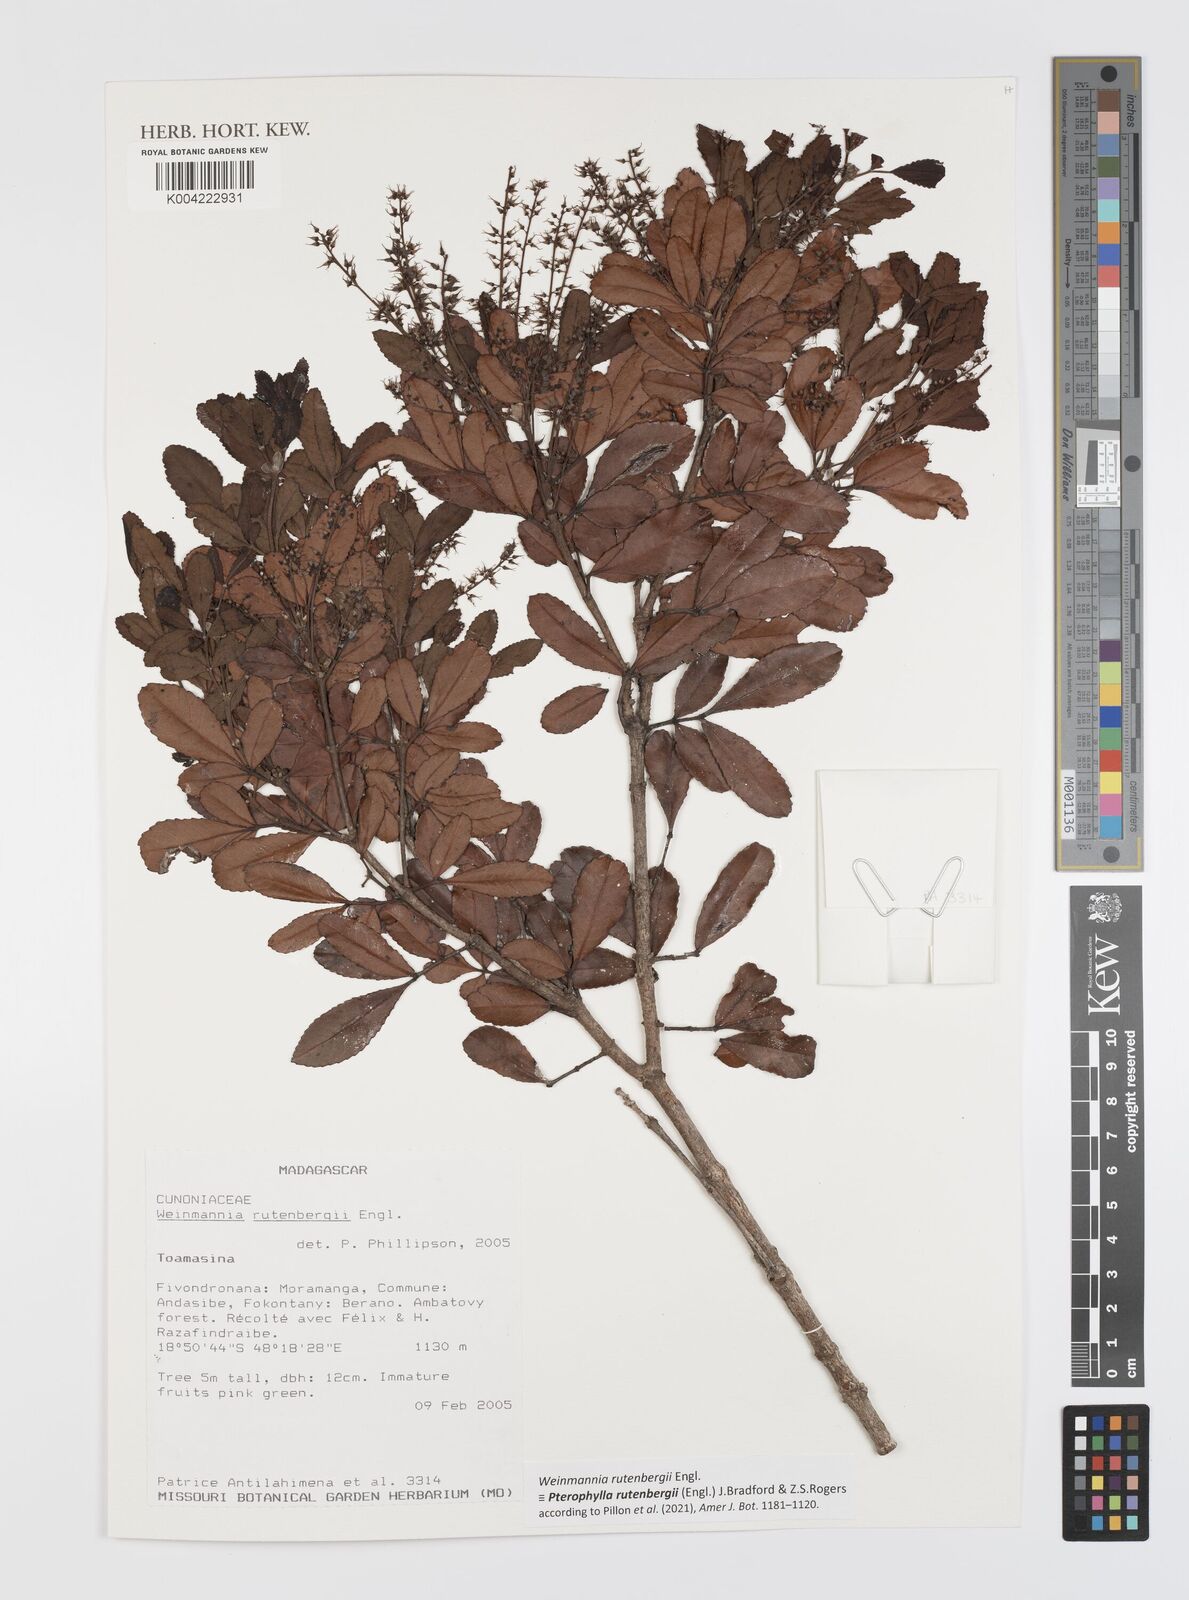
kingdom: Plantae
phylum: Tracheophyta
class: Magnoliopsida
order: Oxalidales
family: Cunoniaceae
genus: Pterophylla
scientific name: Pterophylla rutenbergii
